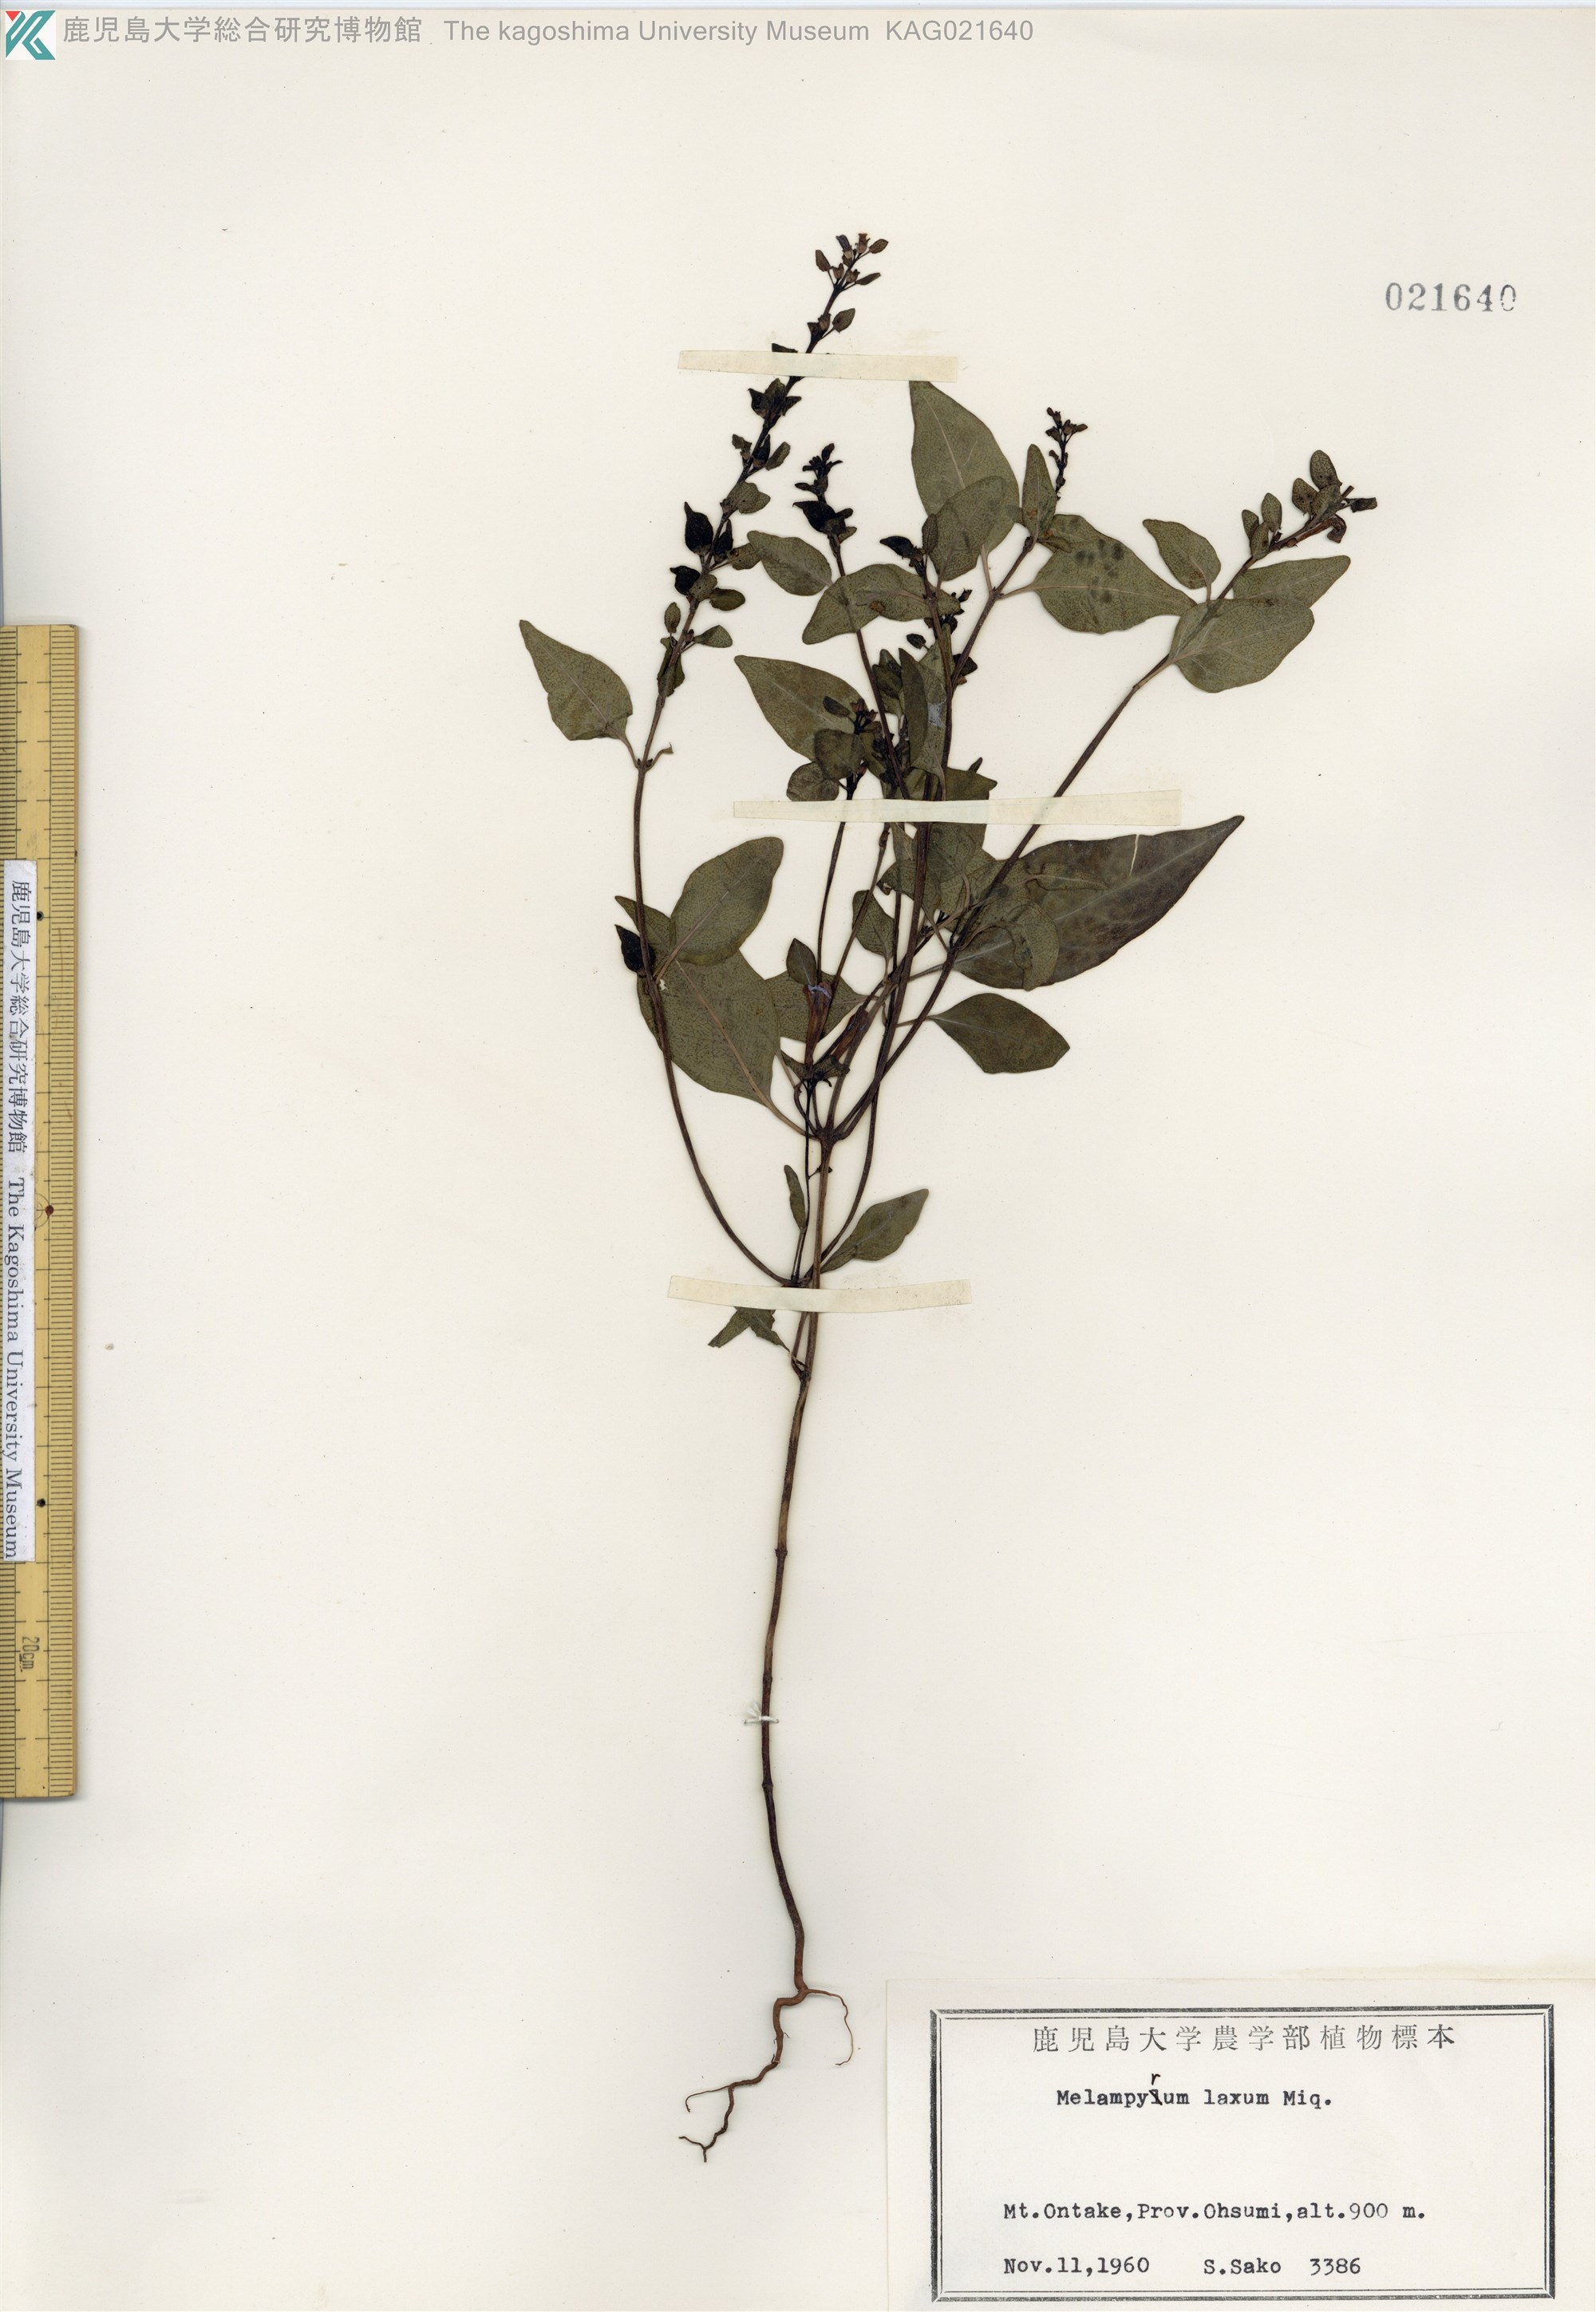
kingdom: Plantae
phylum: Tracheophyta
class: Magnoliopsida
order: Lamiales
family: Orobanchaceae
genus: Melampyrum
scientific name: Melampyrum laxum
